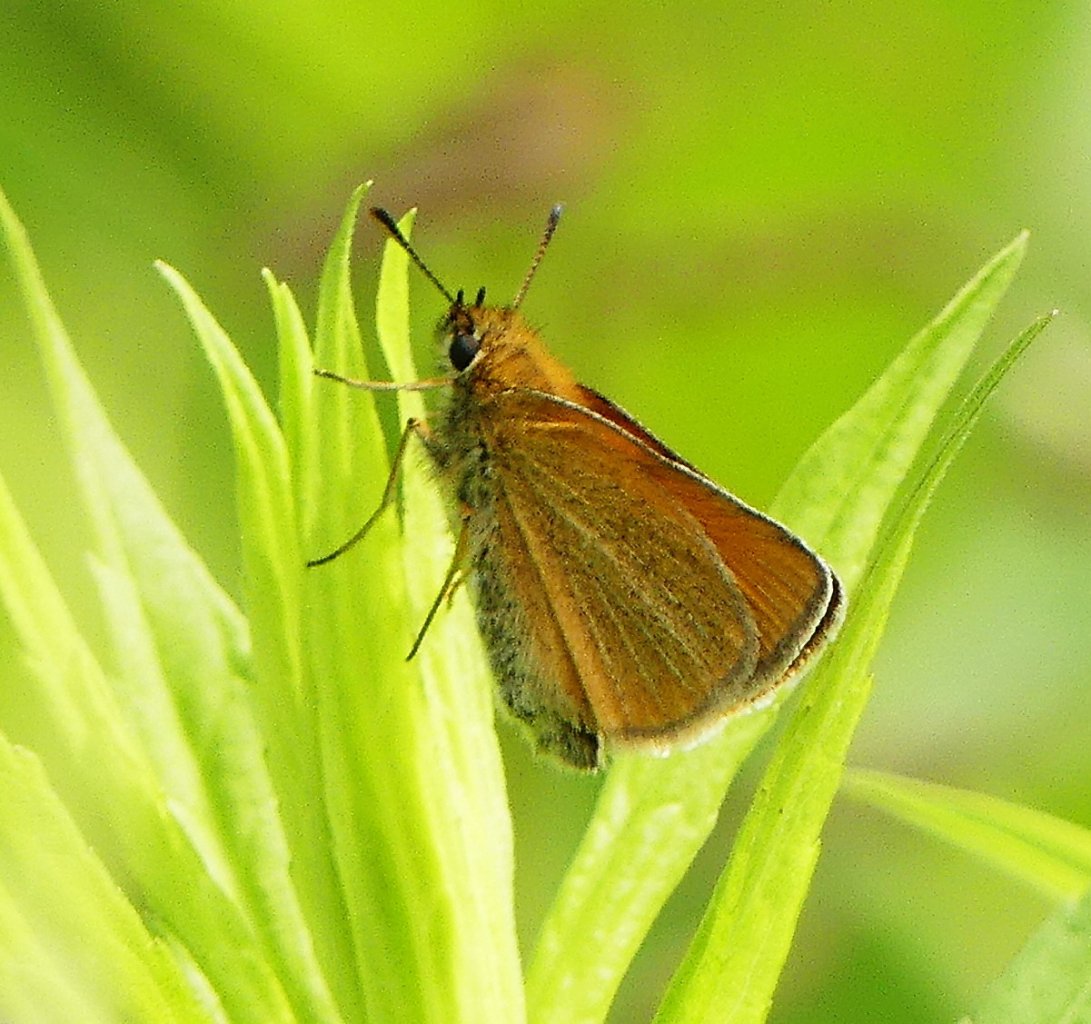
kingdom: Animalia
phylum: Arthropoda
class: Insecta
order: Lepidoptera
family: Hesperiidae
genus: Thymelicus
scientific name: Thymelicus lineola
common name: European Skipper
